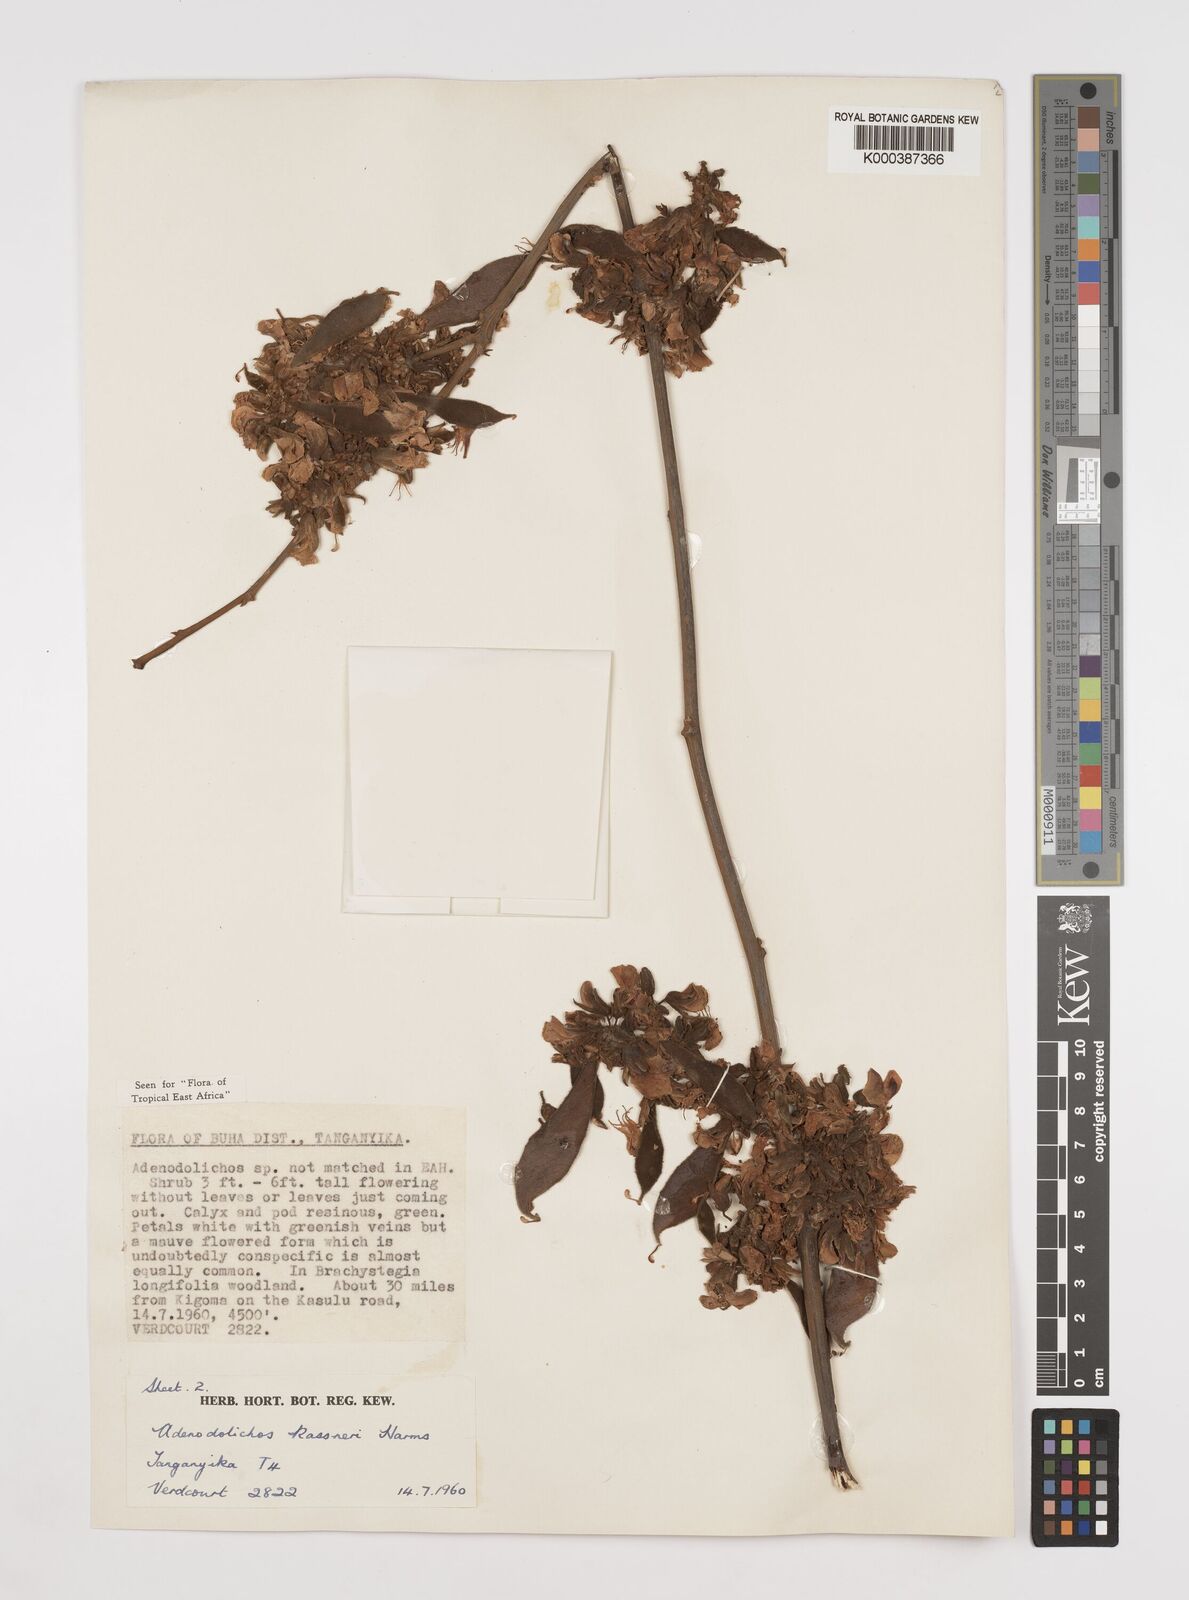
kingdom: Plantae
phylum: Tracheophyta
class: Magnoliopsida
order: Fabales
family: Fabaceae
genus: Adenodolichos
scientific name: Adenodolichos kaessneri
